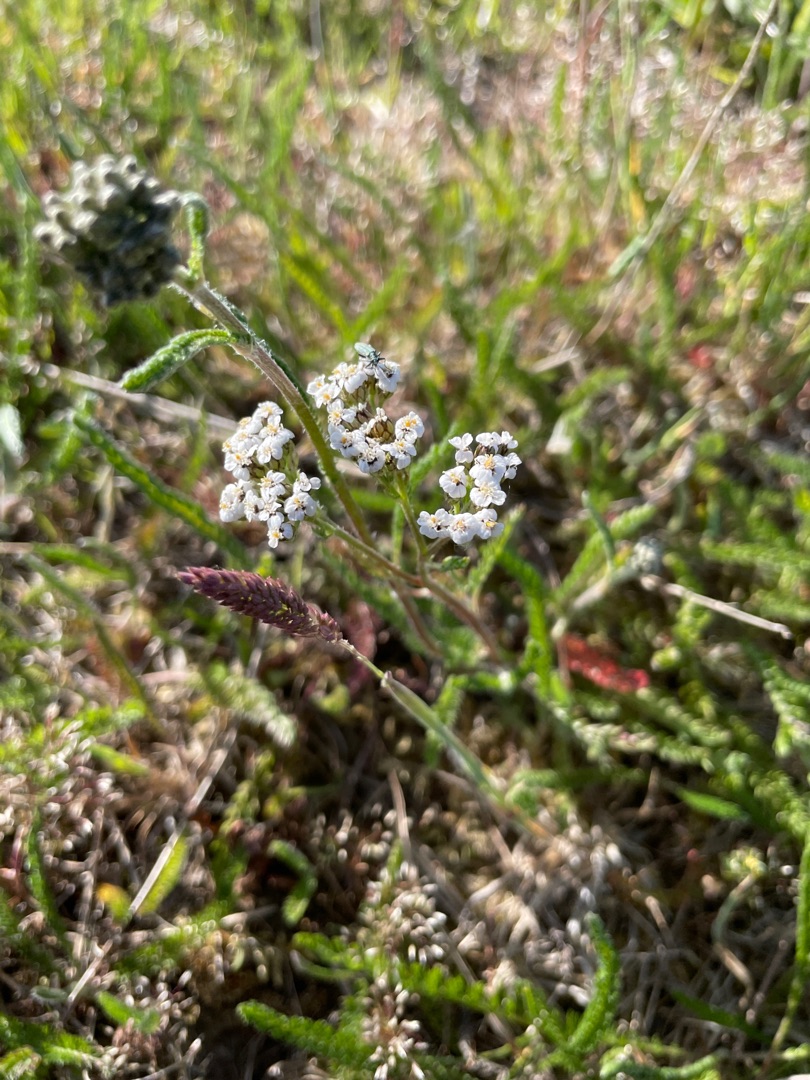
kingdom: Plantae
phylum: Tracheophyta
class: Magnoliopsida
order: Asterales
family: Asteraceae
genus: Achillea
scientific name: Achillea millefolium
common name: Almindelig røllike
